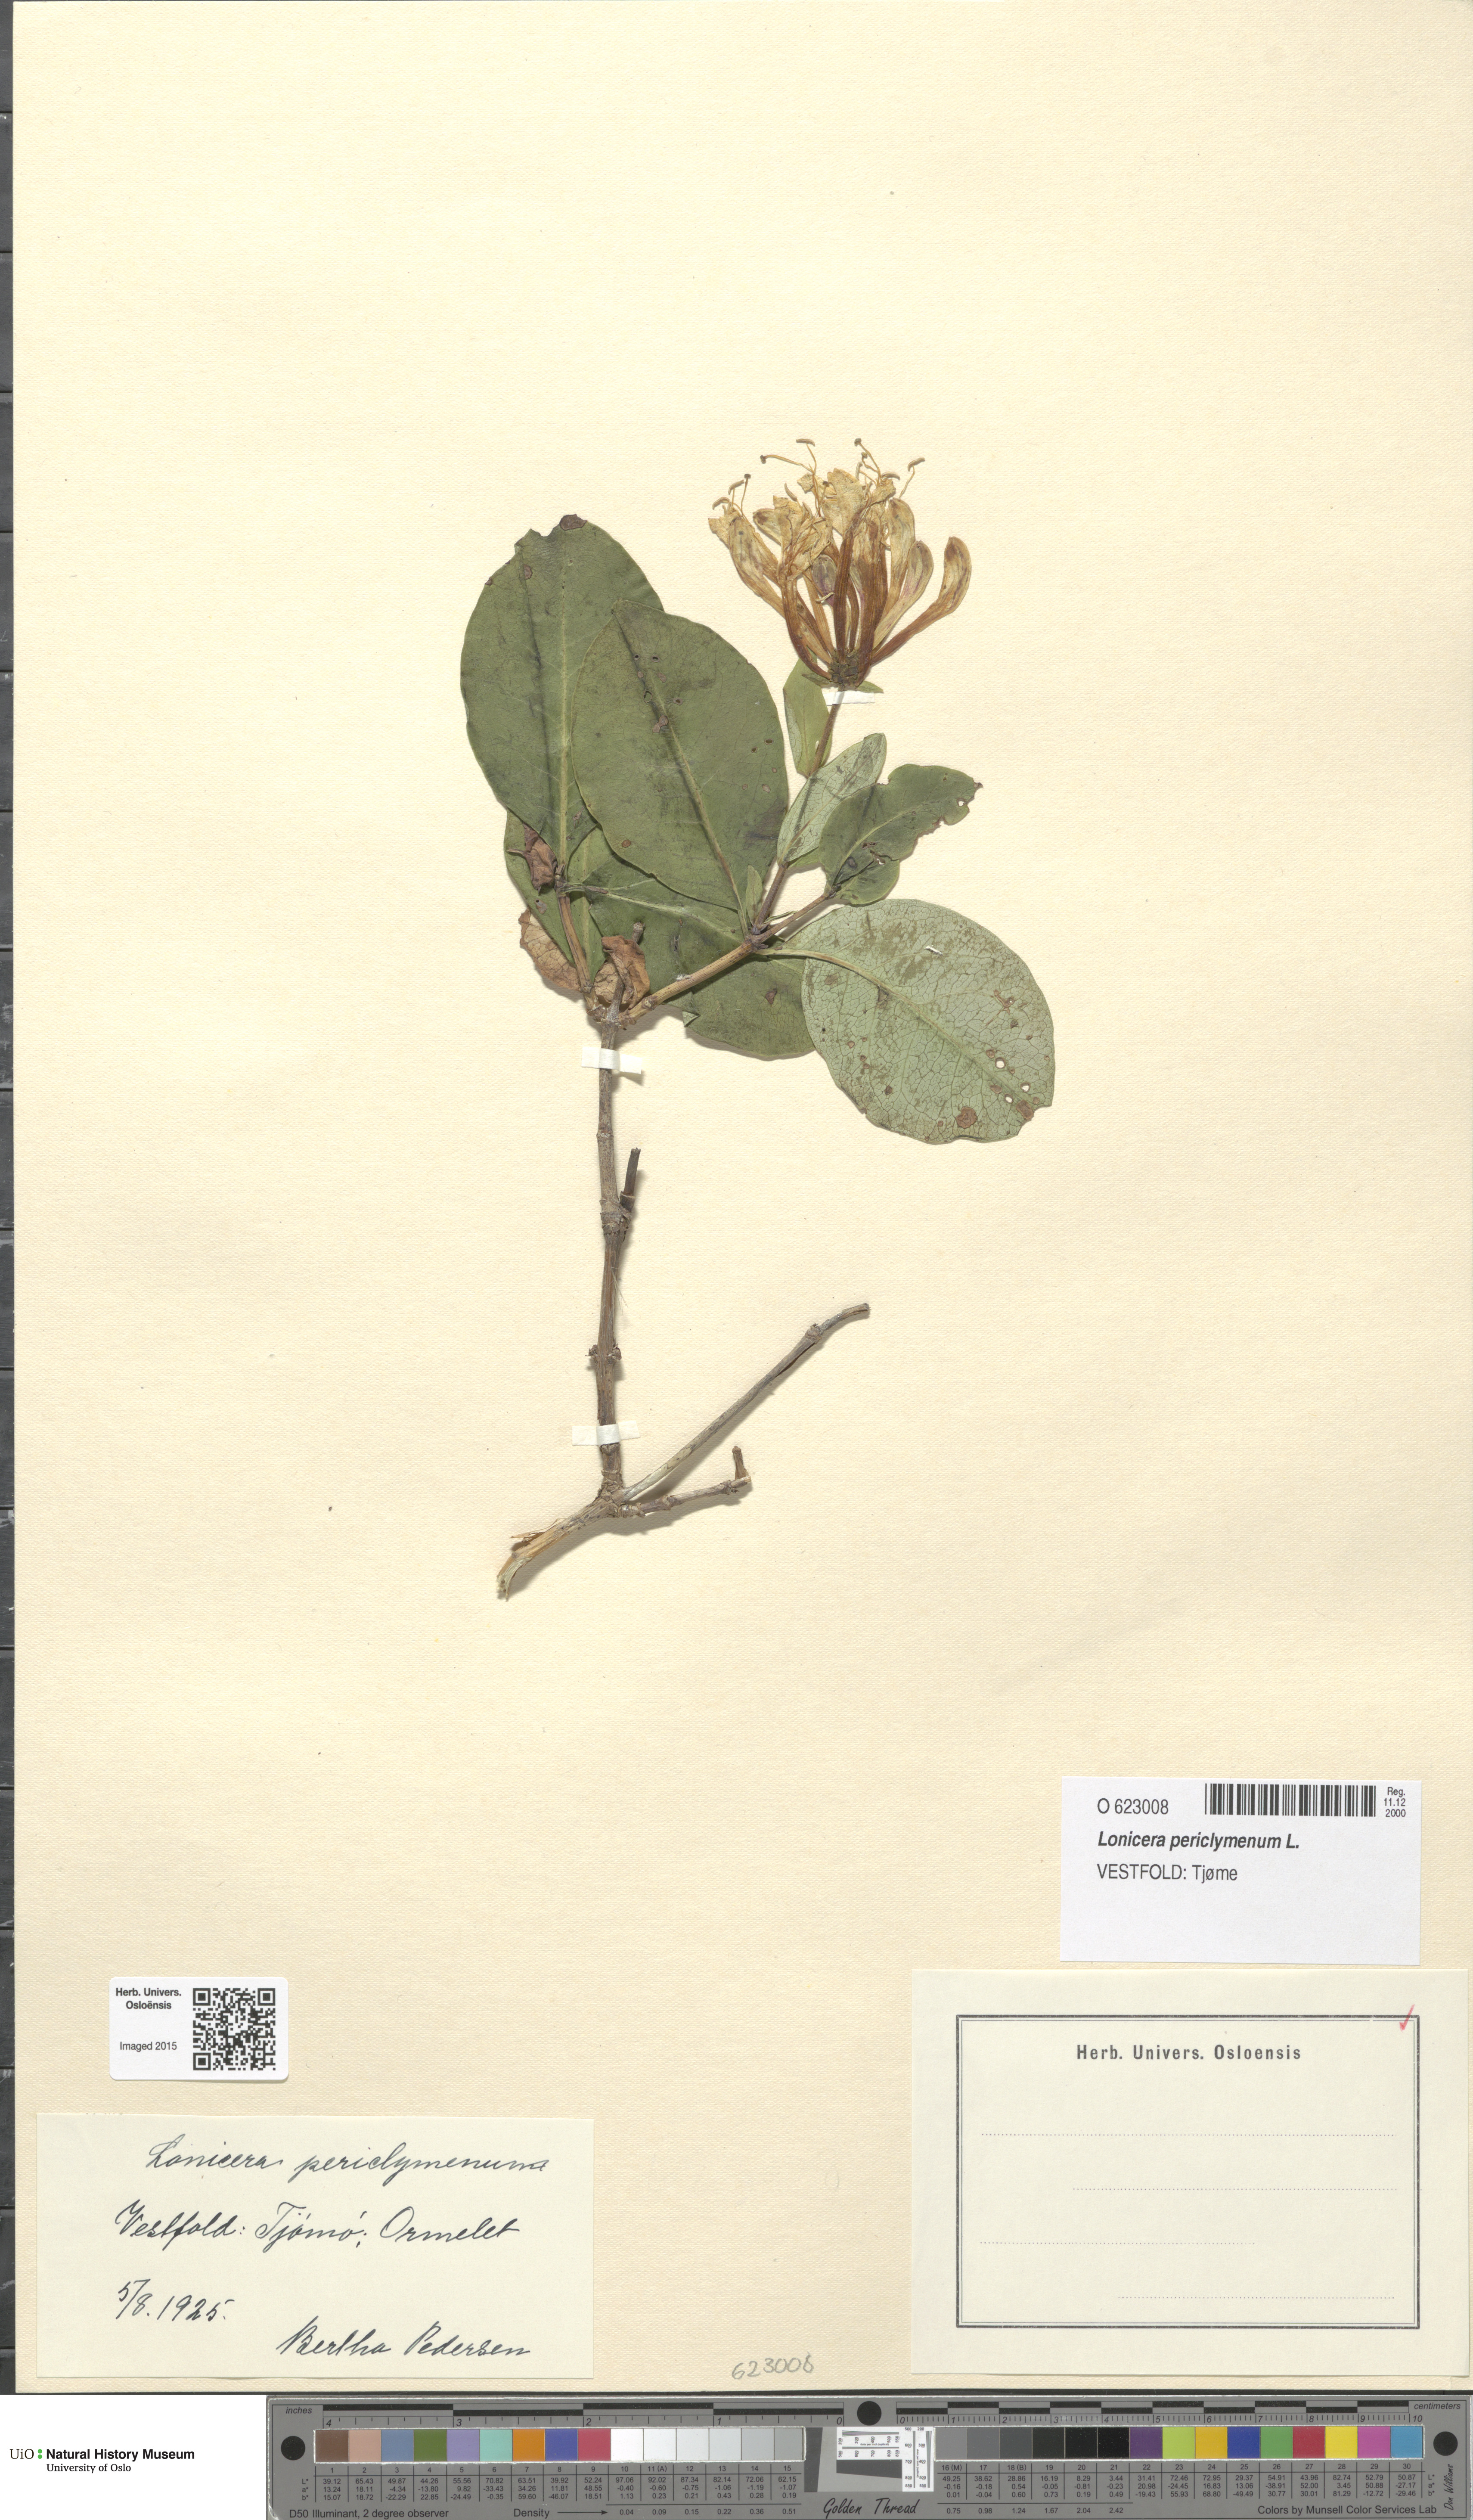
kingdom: Plantae
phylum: Tracheophyta
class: Magnoliopsida
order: Dipsacales
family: Caprifoliaceae
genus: Lonicera
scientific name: Lonicera periclymenum
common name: European honeysuckle
